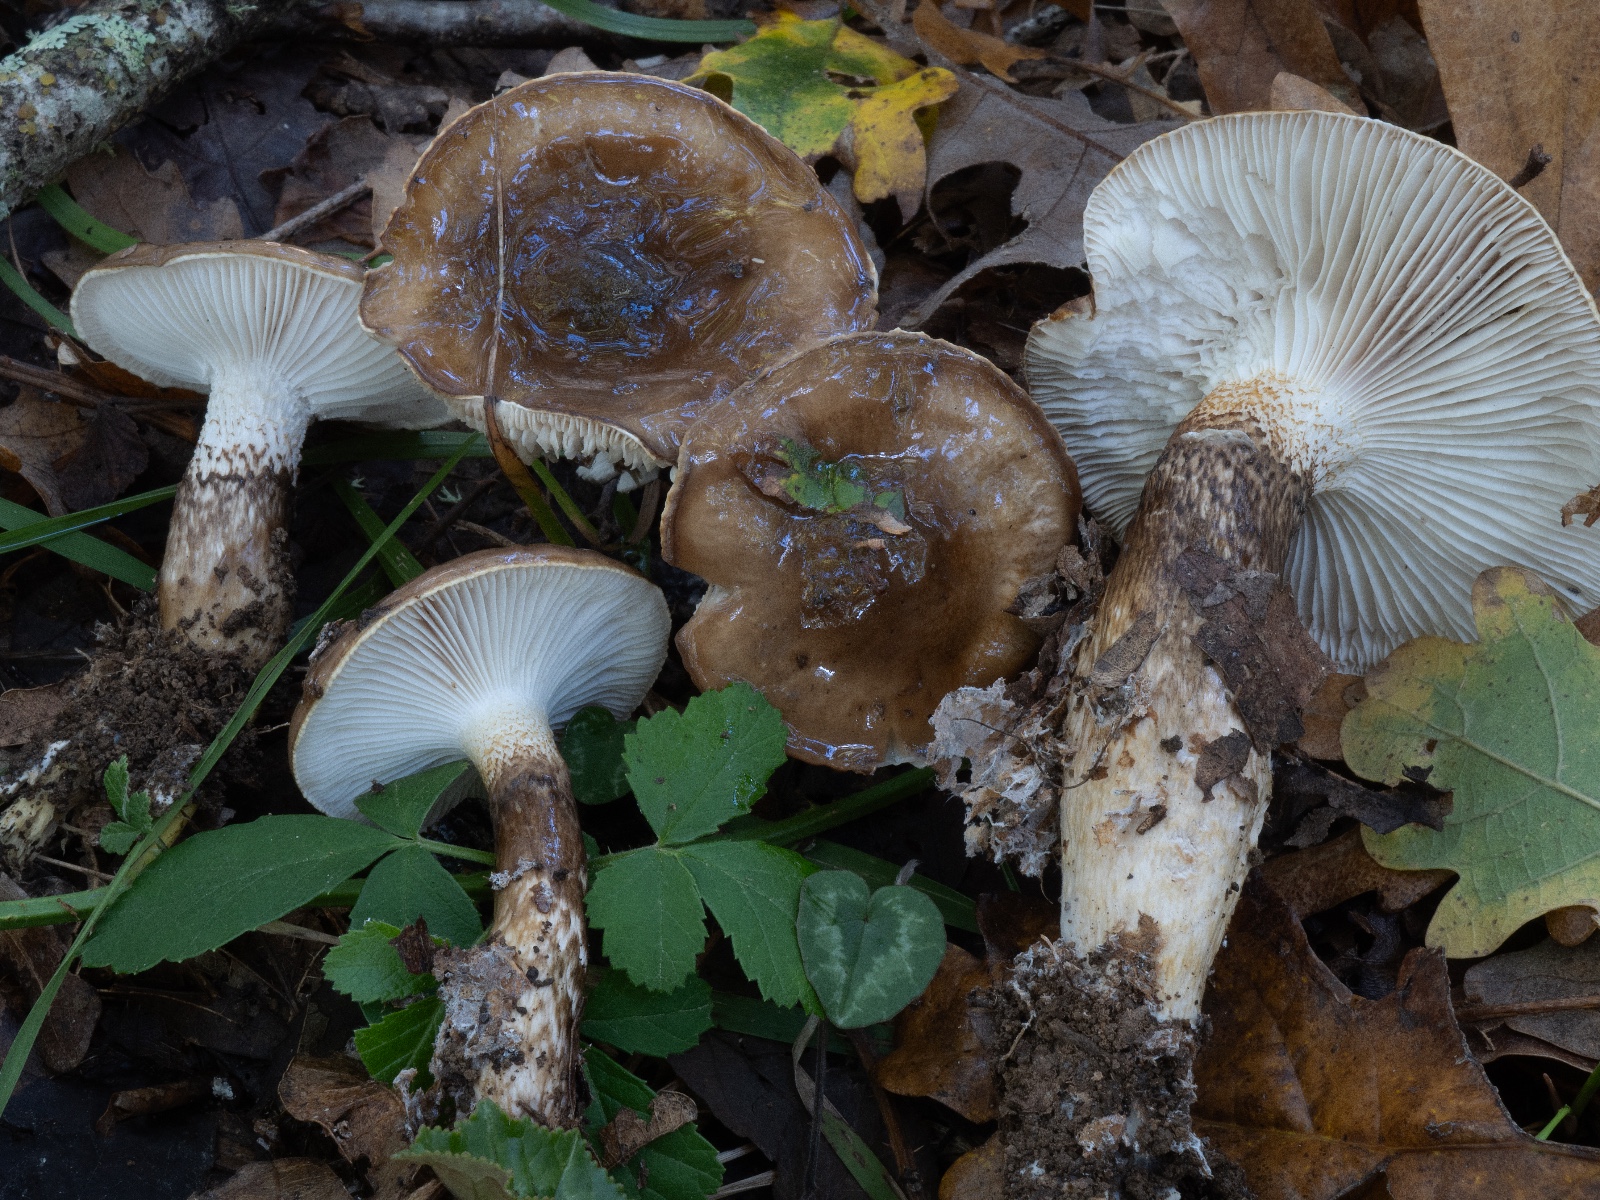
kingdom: Fungi
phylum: Basidiomycota
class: Agaricomycetes
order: Agaricales
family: Hygrophoraceae
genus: Hygrophorus
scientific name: Hygrophorus glutinifer
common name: tvefarvet sneglehat
